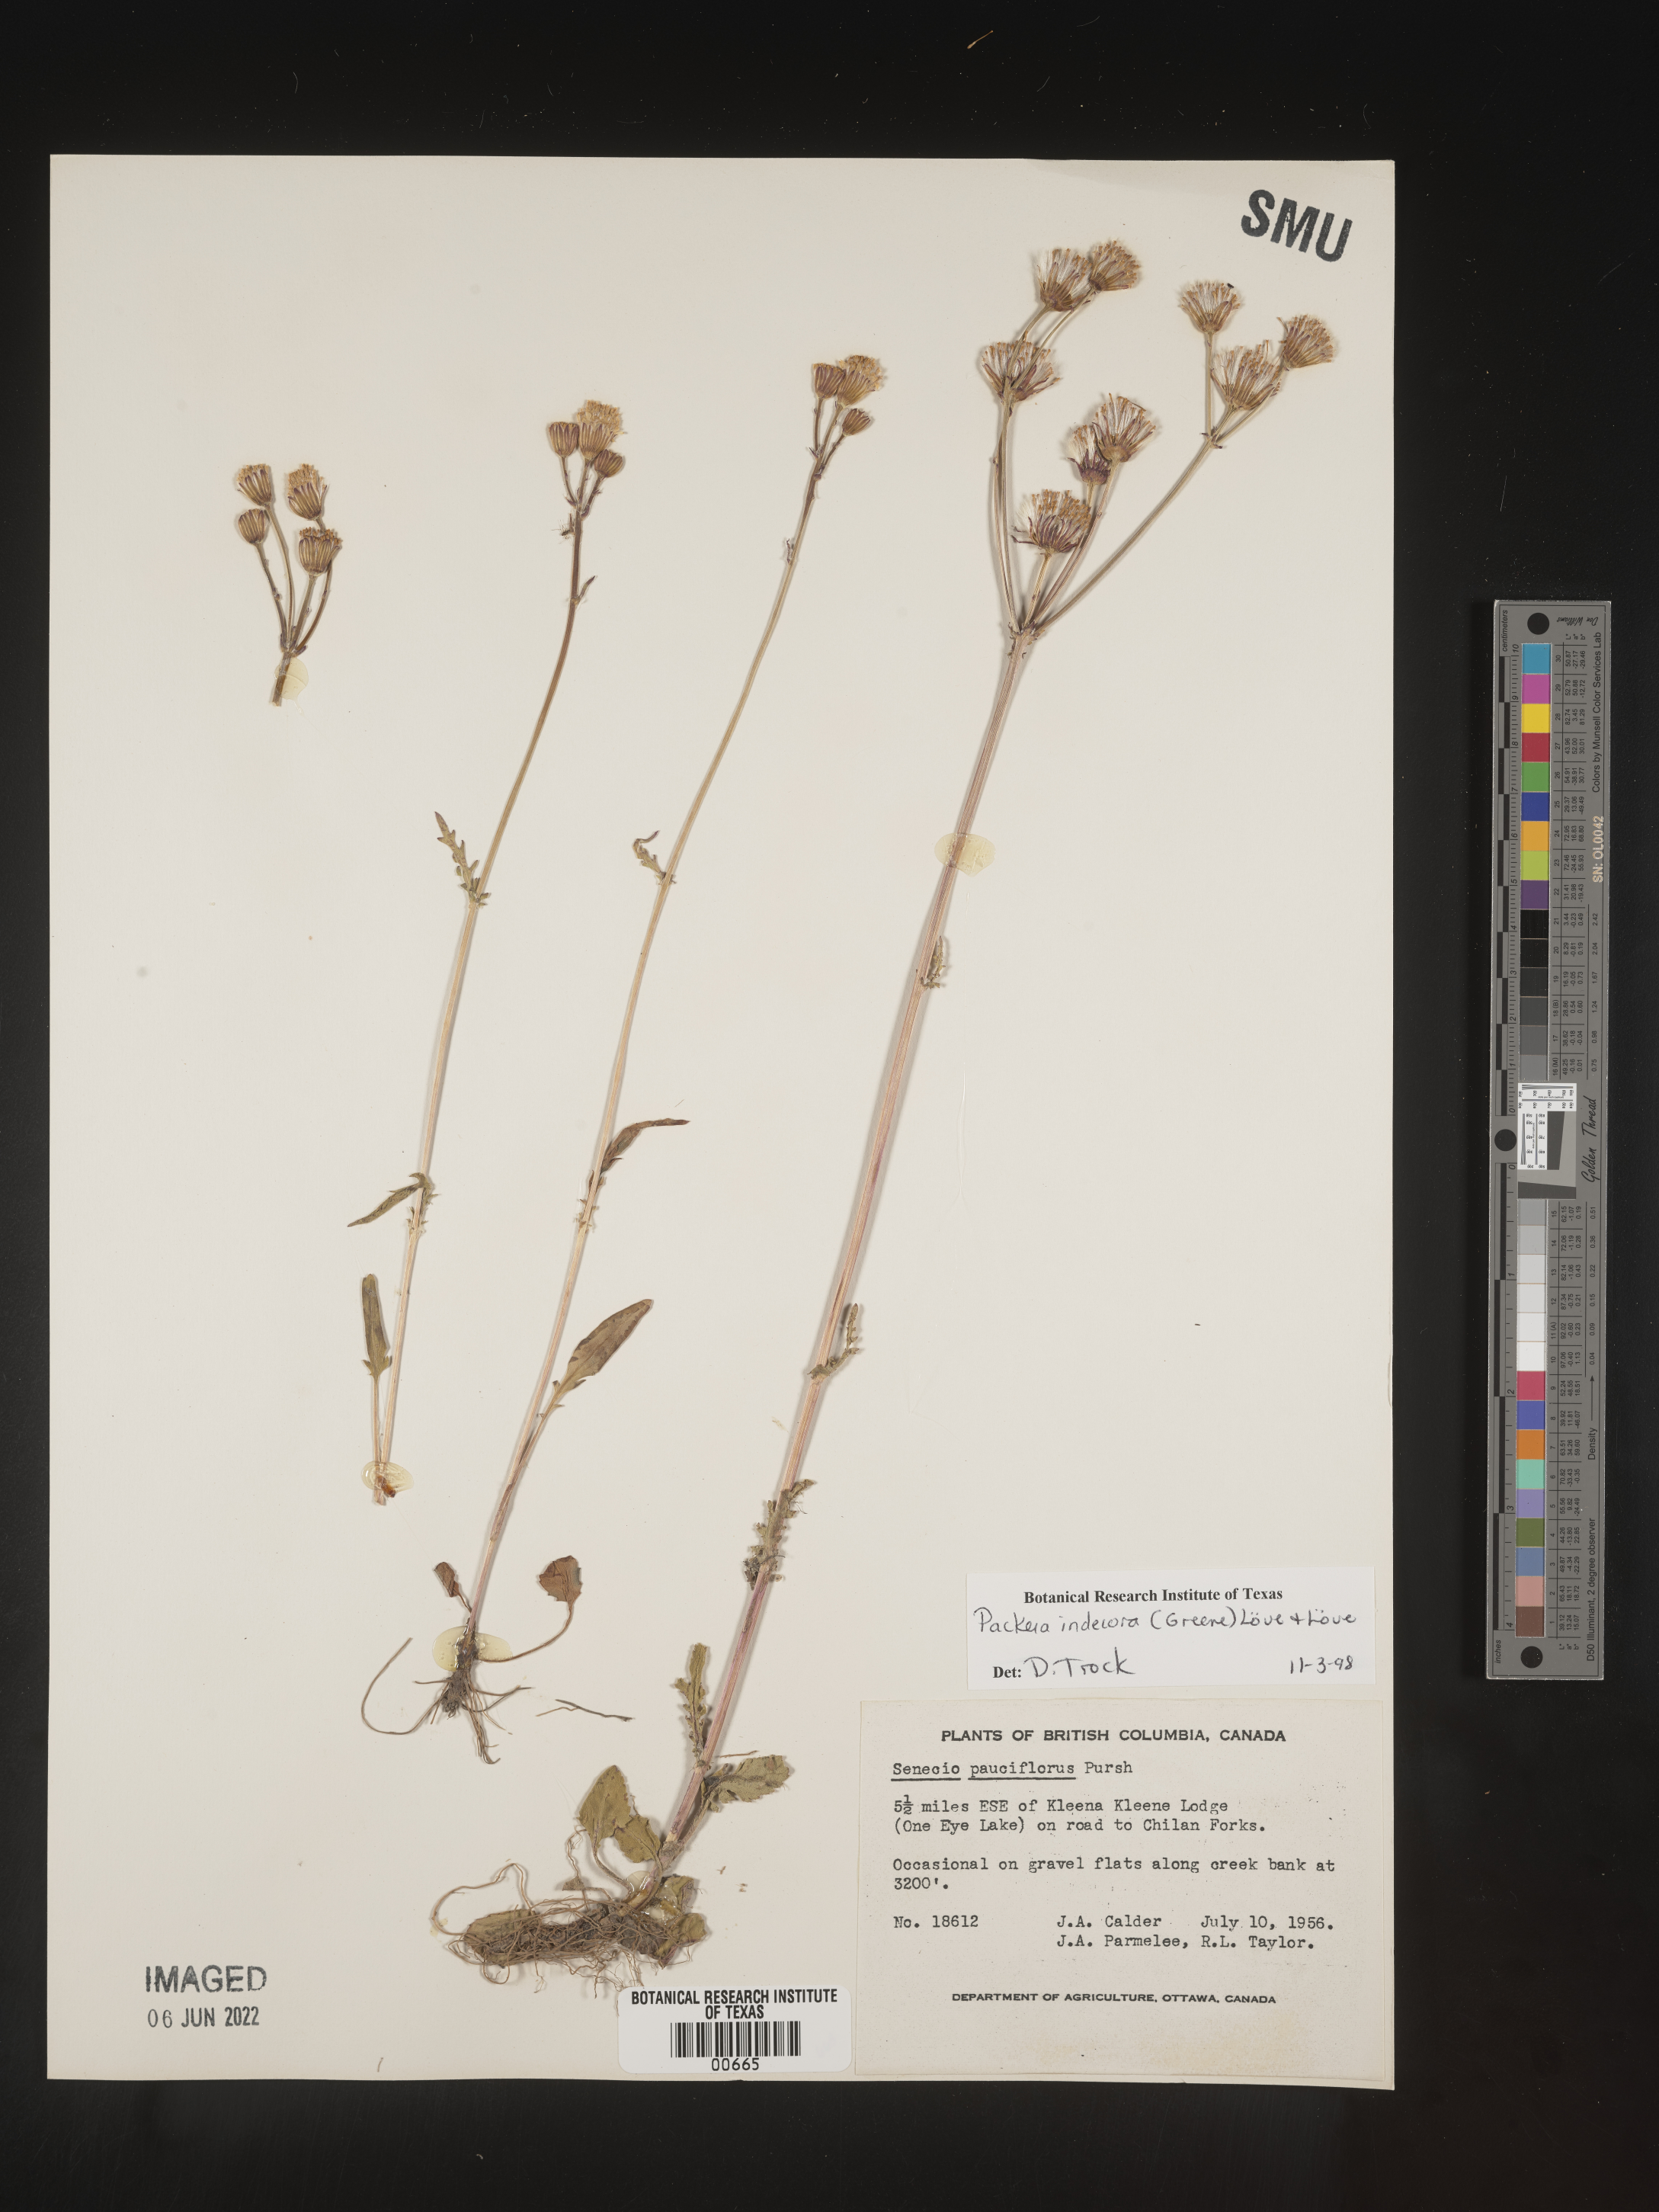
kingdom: Plantae
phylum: Tracheophyta
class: Magnoliopsida
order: Asterales
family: Asteraceae
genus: Packera
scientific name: Packera
